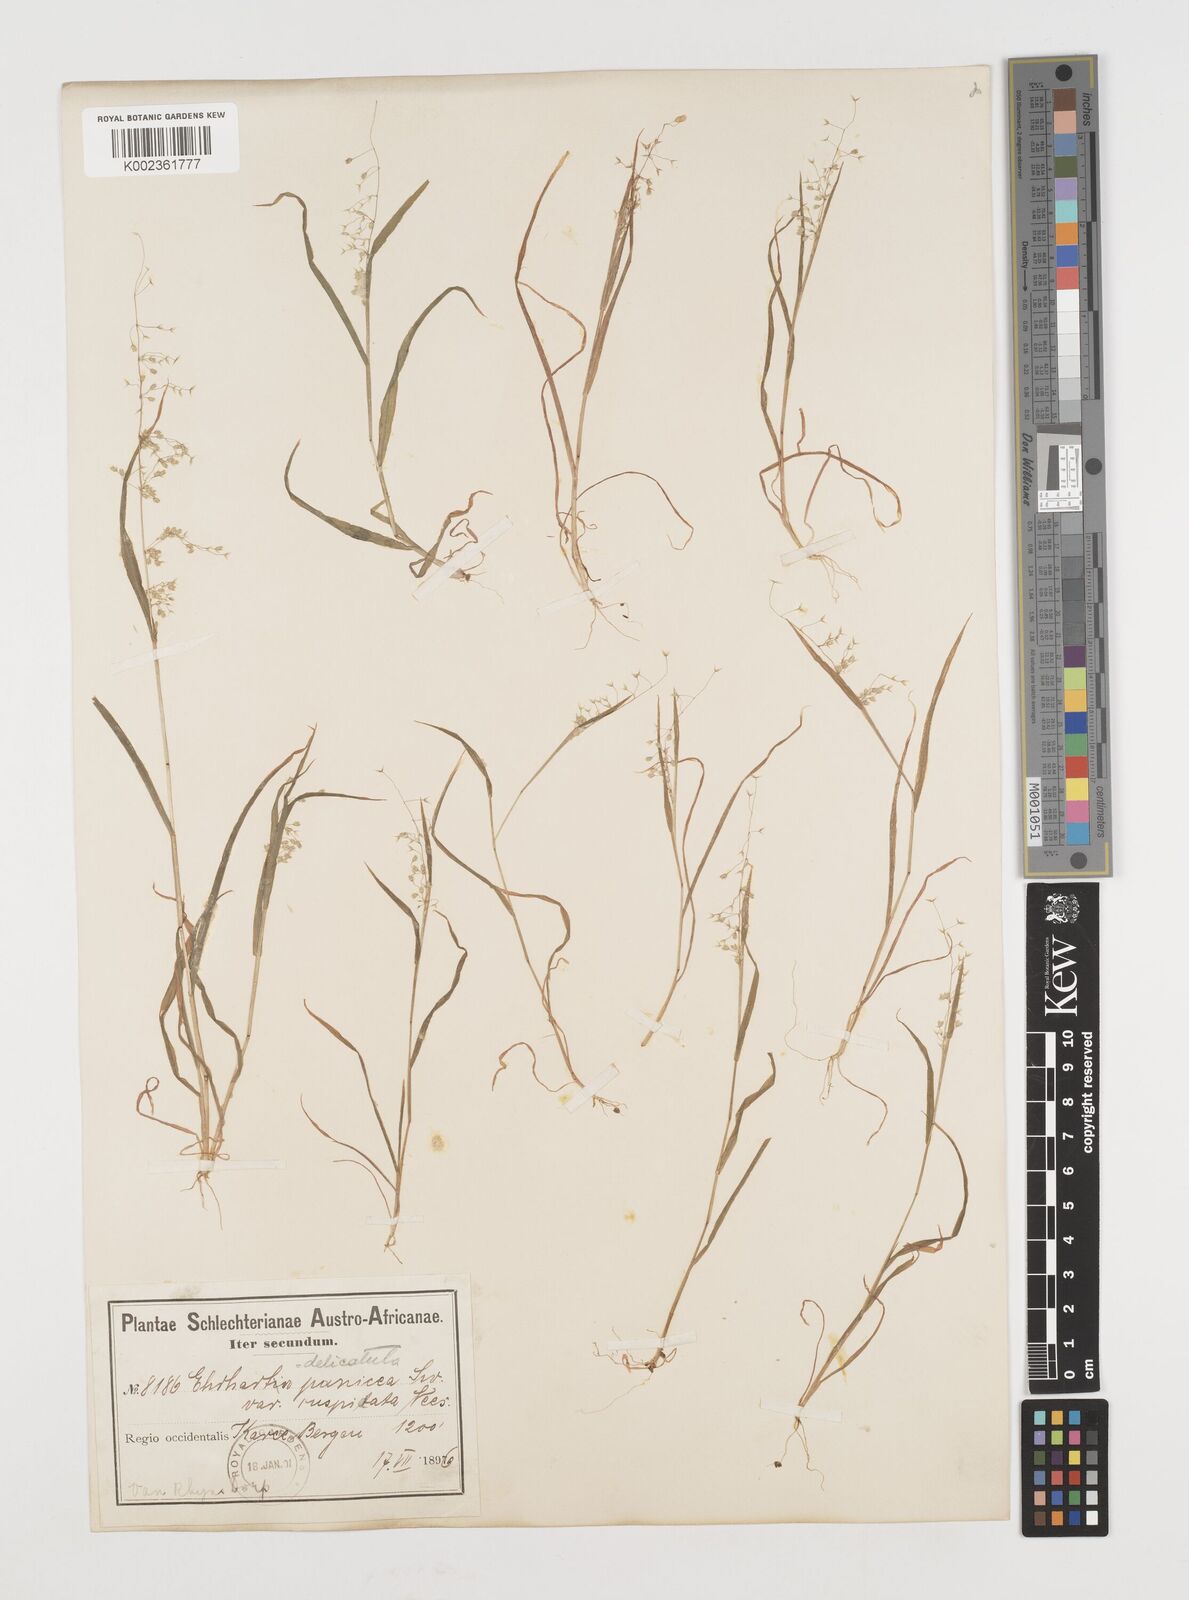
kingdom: Plantae
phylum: Tracheophyta
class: Liliopsida
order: Poales
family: Poaceae
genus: Ehrharta
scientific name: Ehrharta delicatula
